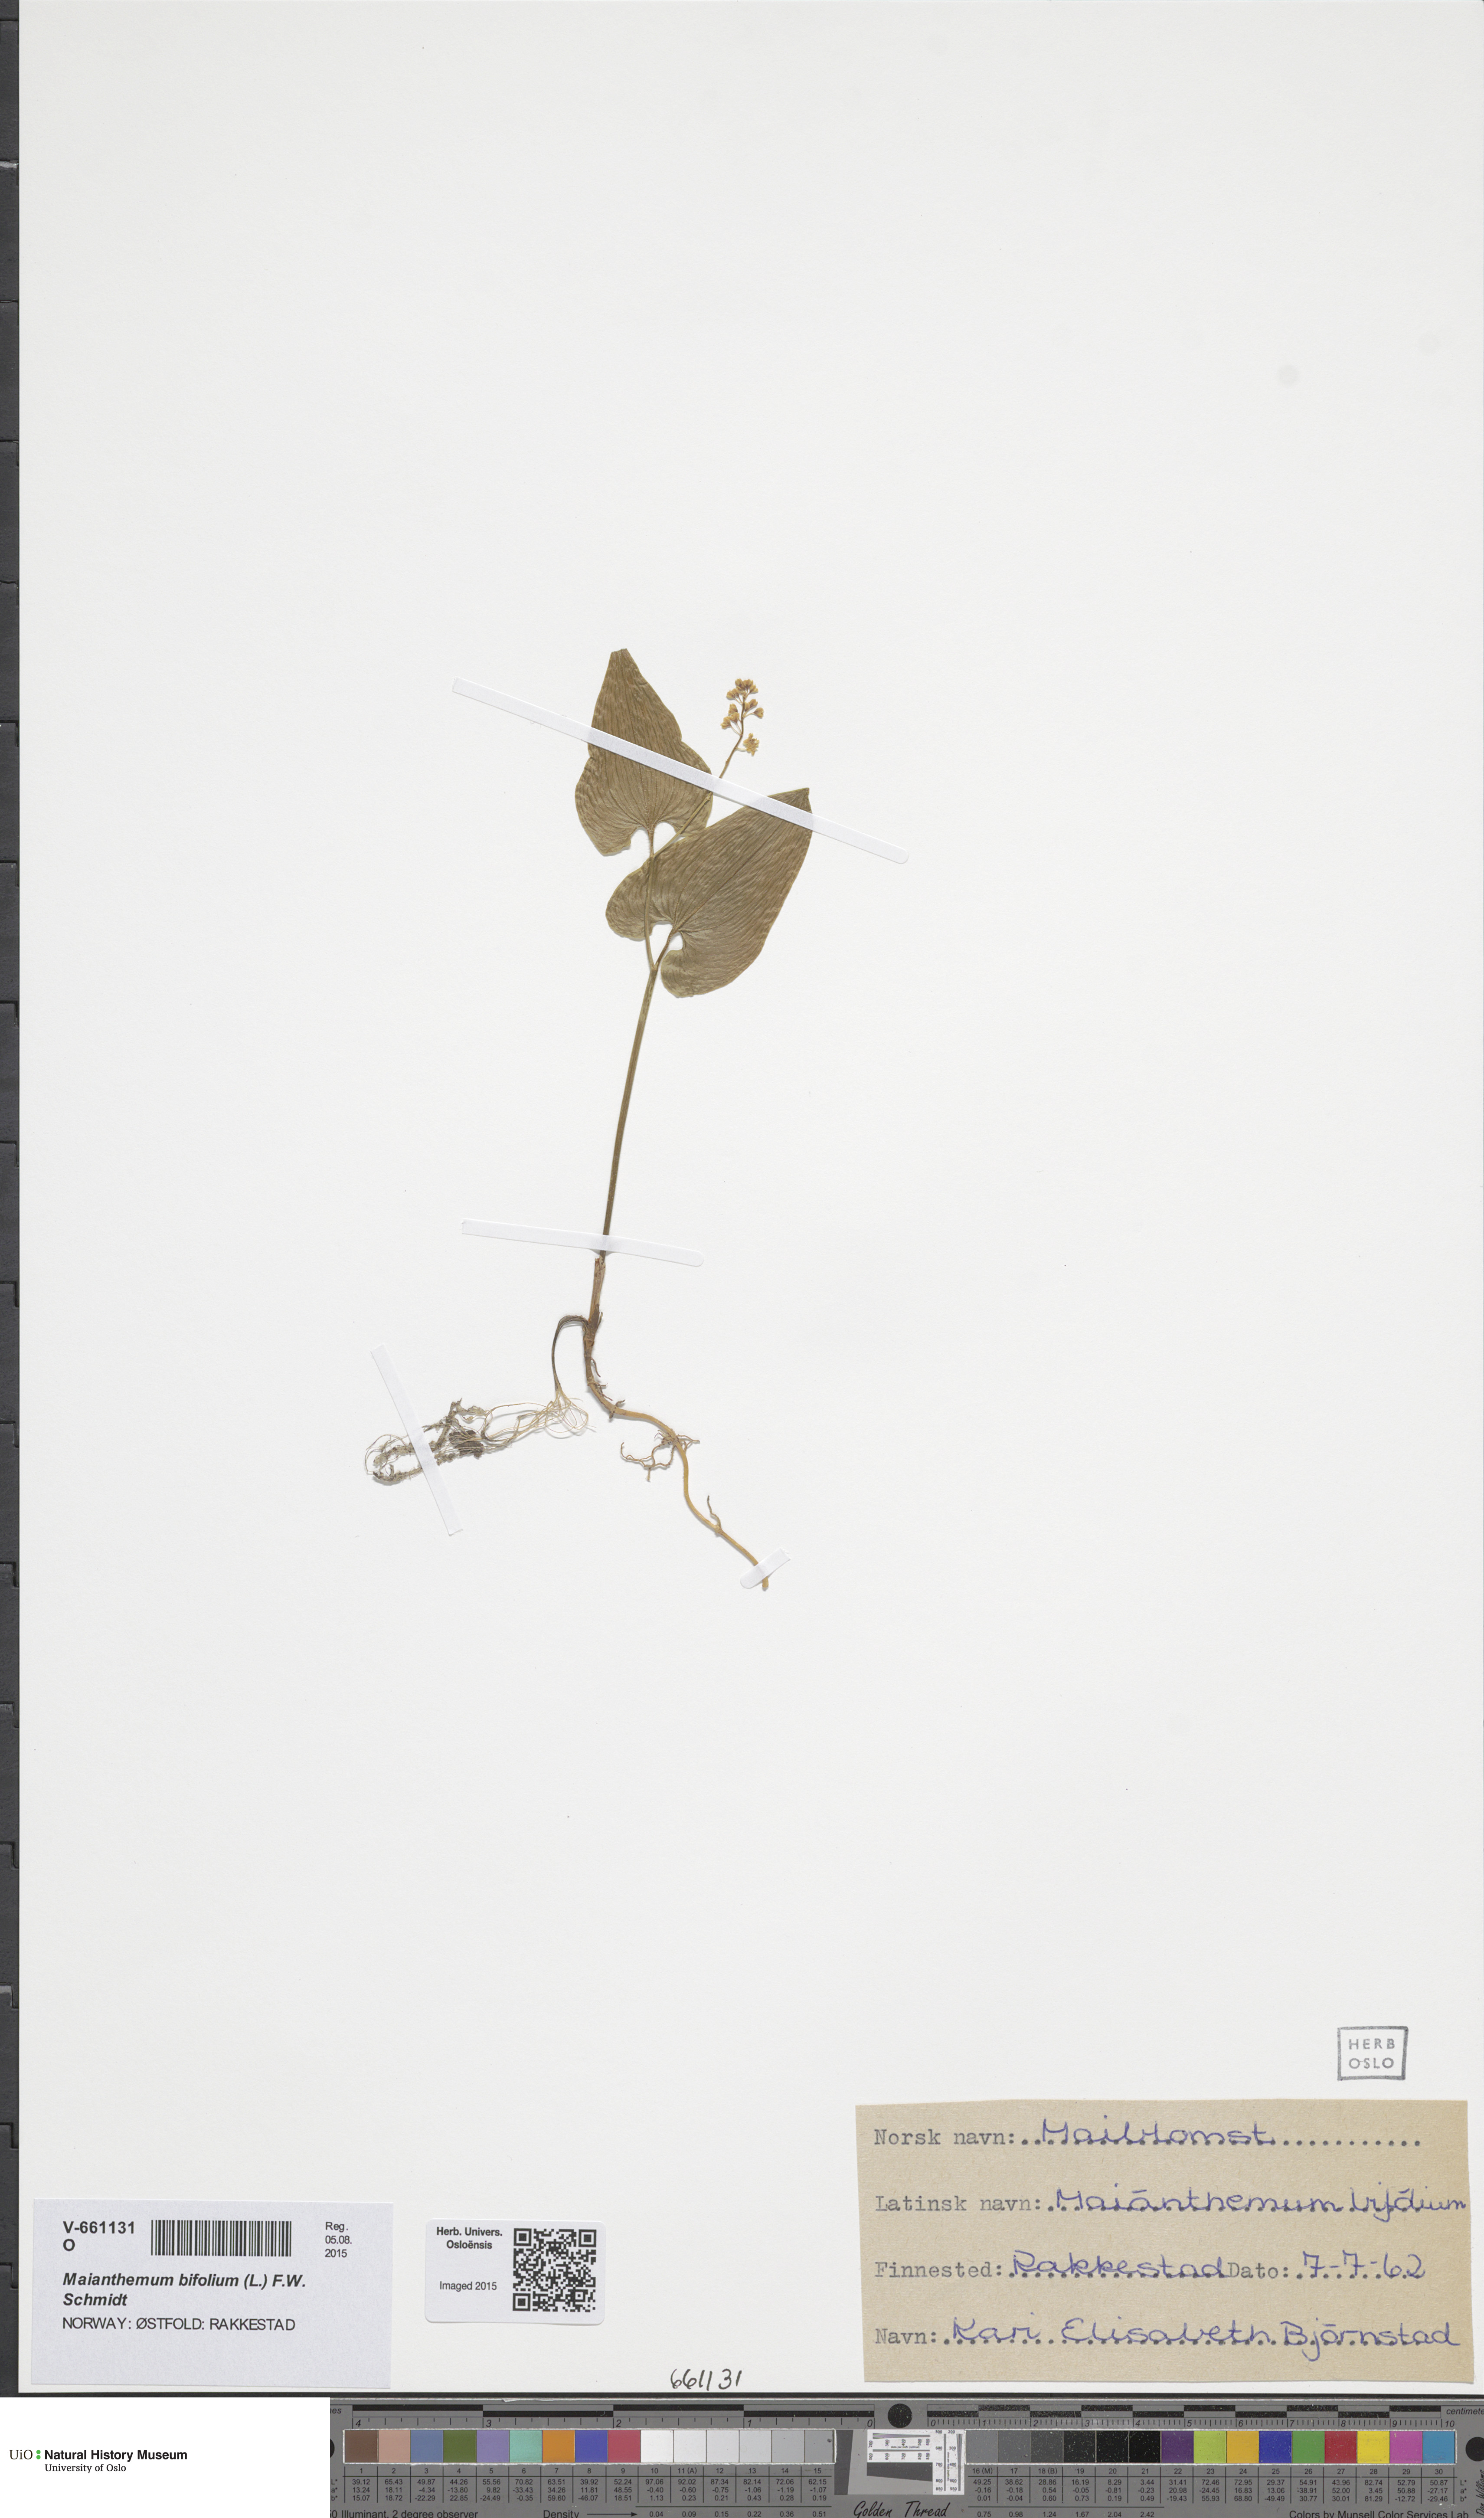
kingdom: Plantae
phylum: Tracheophyta
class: Liliopsida
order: Asparagales
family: Asparagaceae
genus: Maianthemum
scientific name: Maianthemum bifolium
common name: May lily
